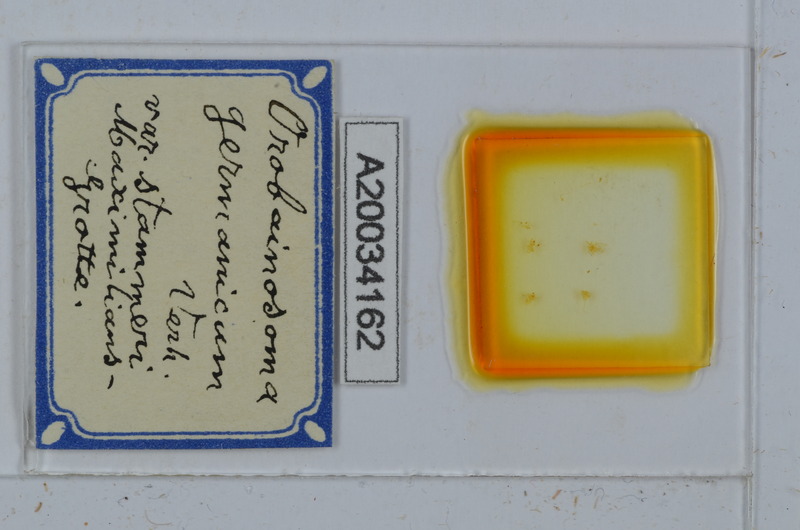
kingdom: Animalia
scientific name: Animalia
